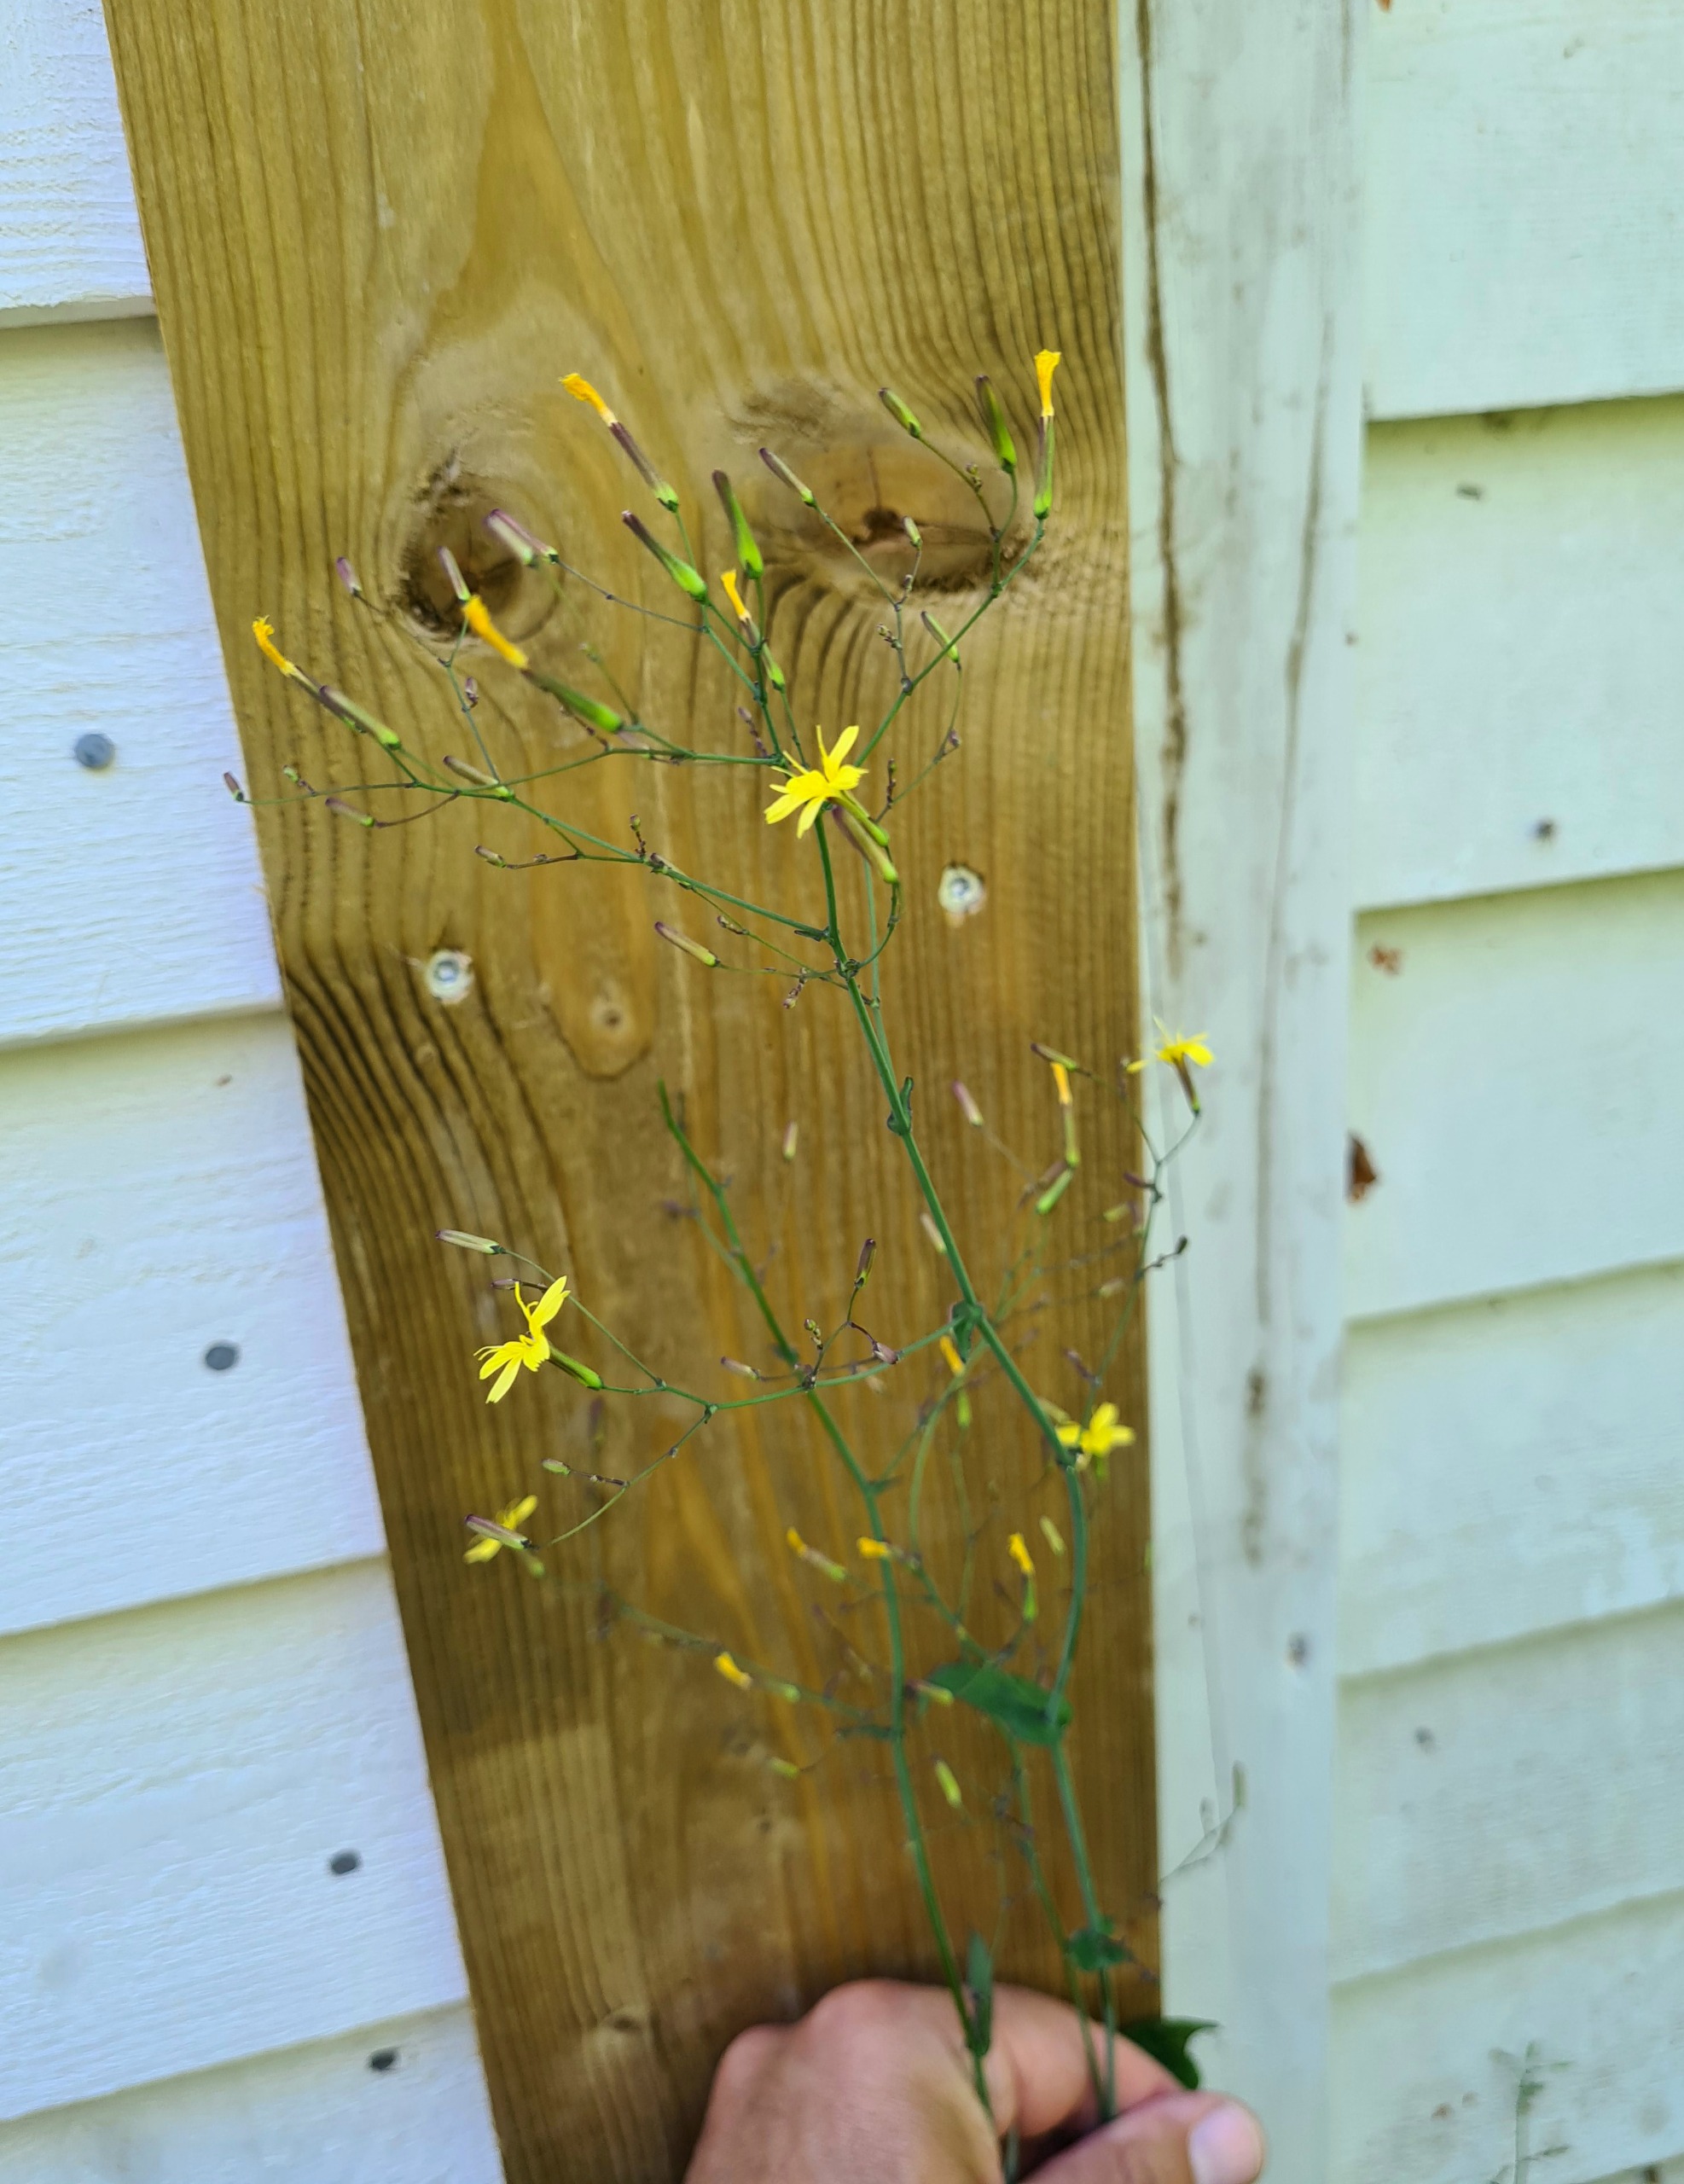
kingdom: Plantae
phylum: Tracheophyta
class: Magnoliopsida
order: Asterales
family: Asteraceae
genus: Mycelis
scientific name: Mycelis muralis
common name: Skov-salat
